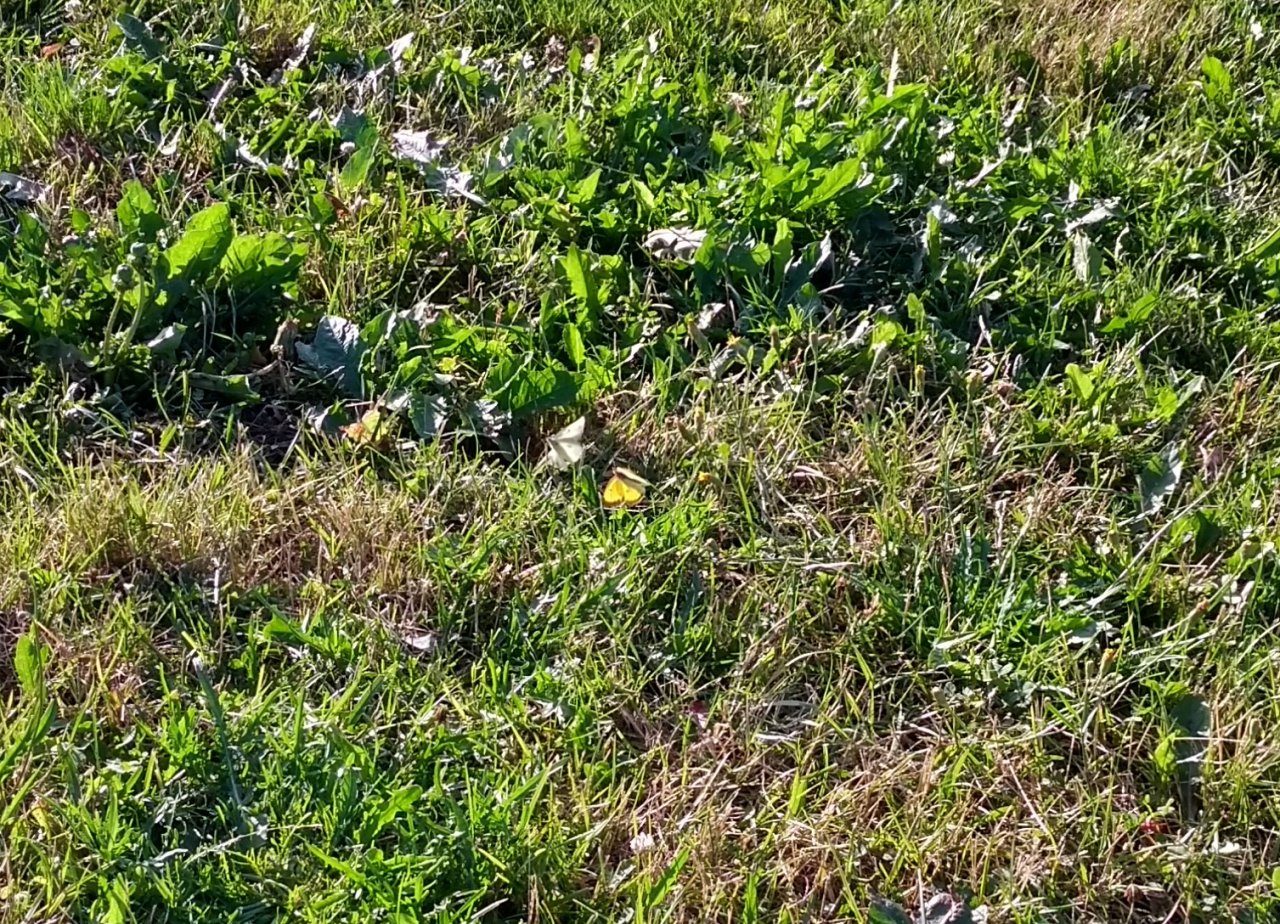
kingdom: Animalia
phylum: Arthropoda
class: Insecta
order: Lepidoptera
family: Pieridae
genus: Colias
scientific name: Colias eurytheme
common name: Orange Sulphur
